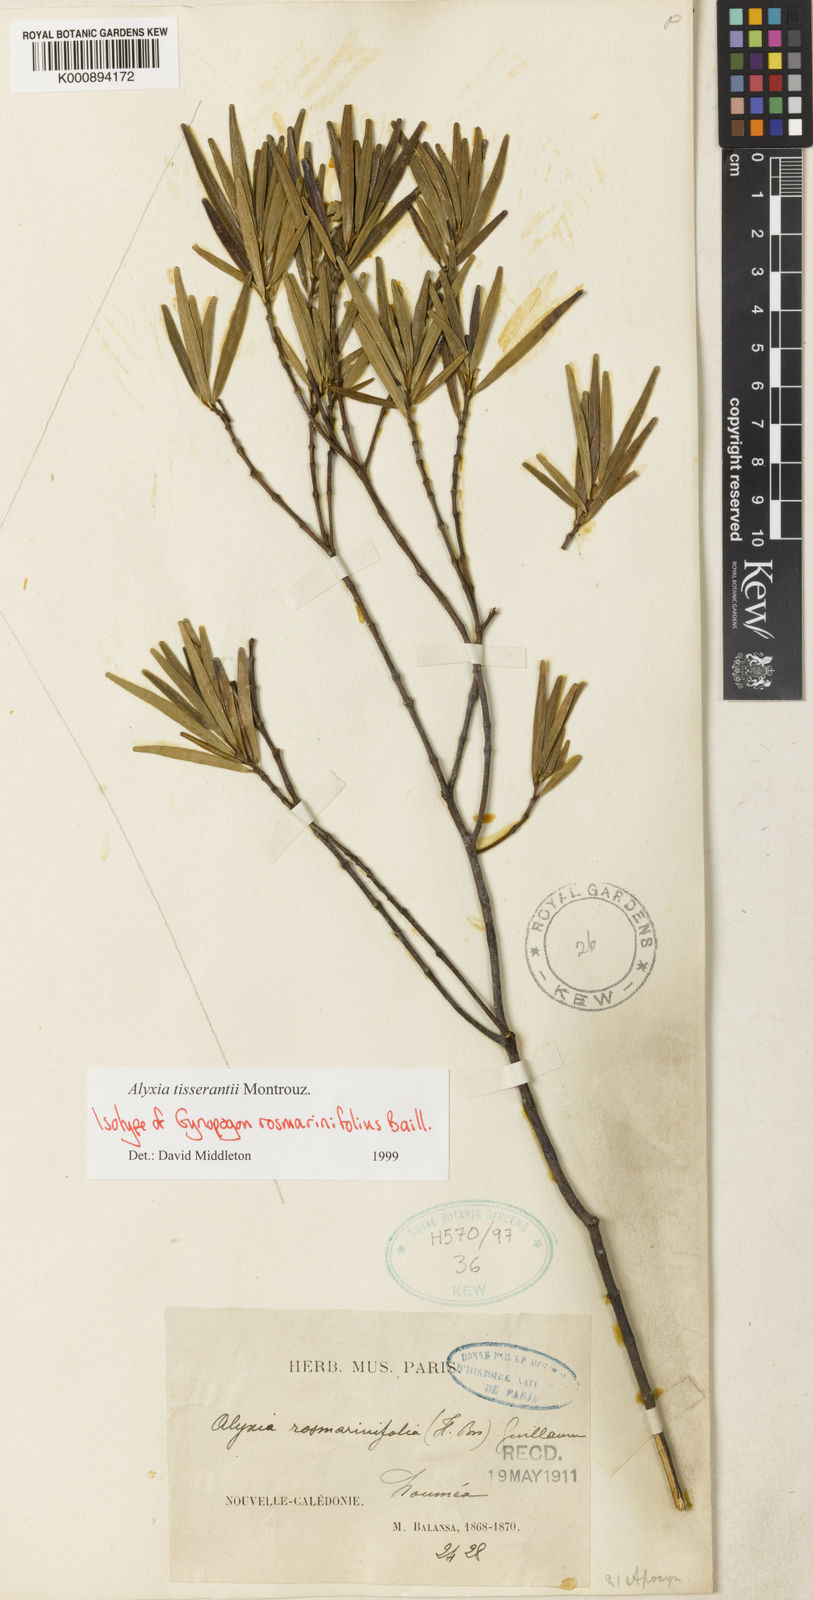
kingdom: Plantae
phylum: Tracheophyta
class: Magnoliopsida
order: Gentianales
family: Apocynaceae
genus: Alyxia
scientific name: Alyxia tisserantii
